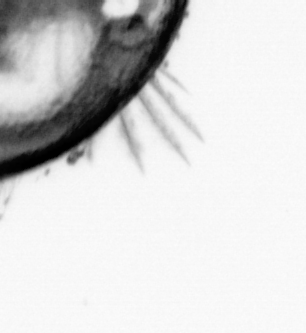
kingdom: Animalia
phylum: Annelida
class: Polychaeta
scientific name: Polychaeta
